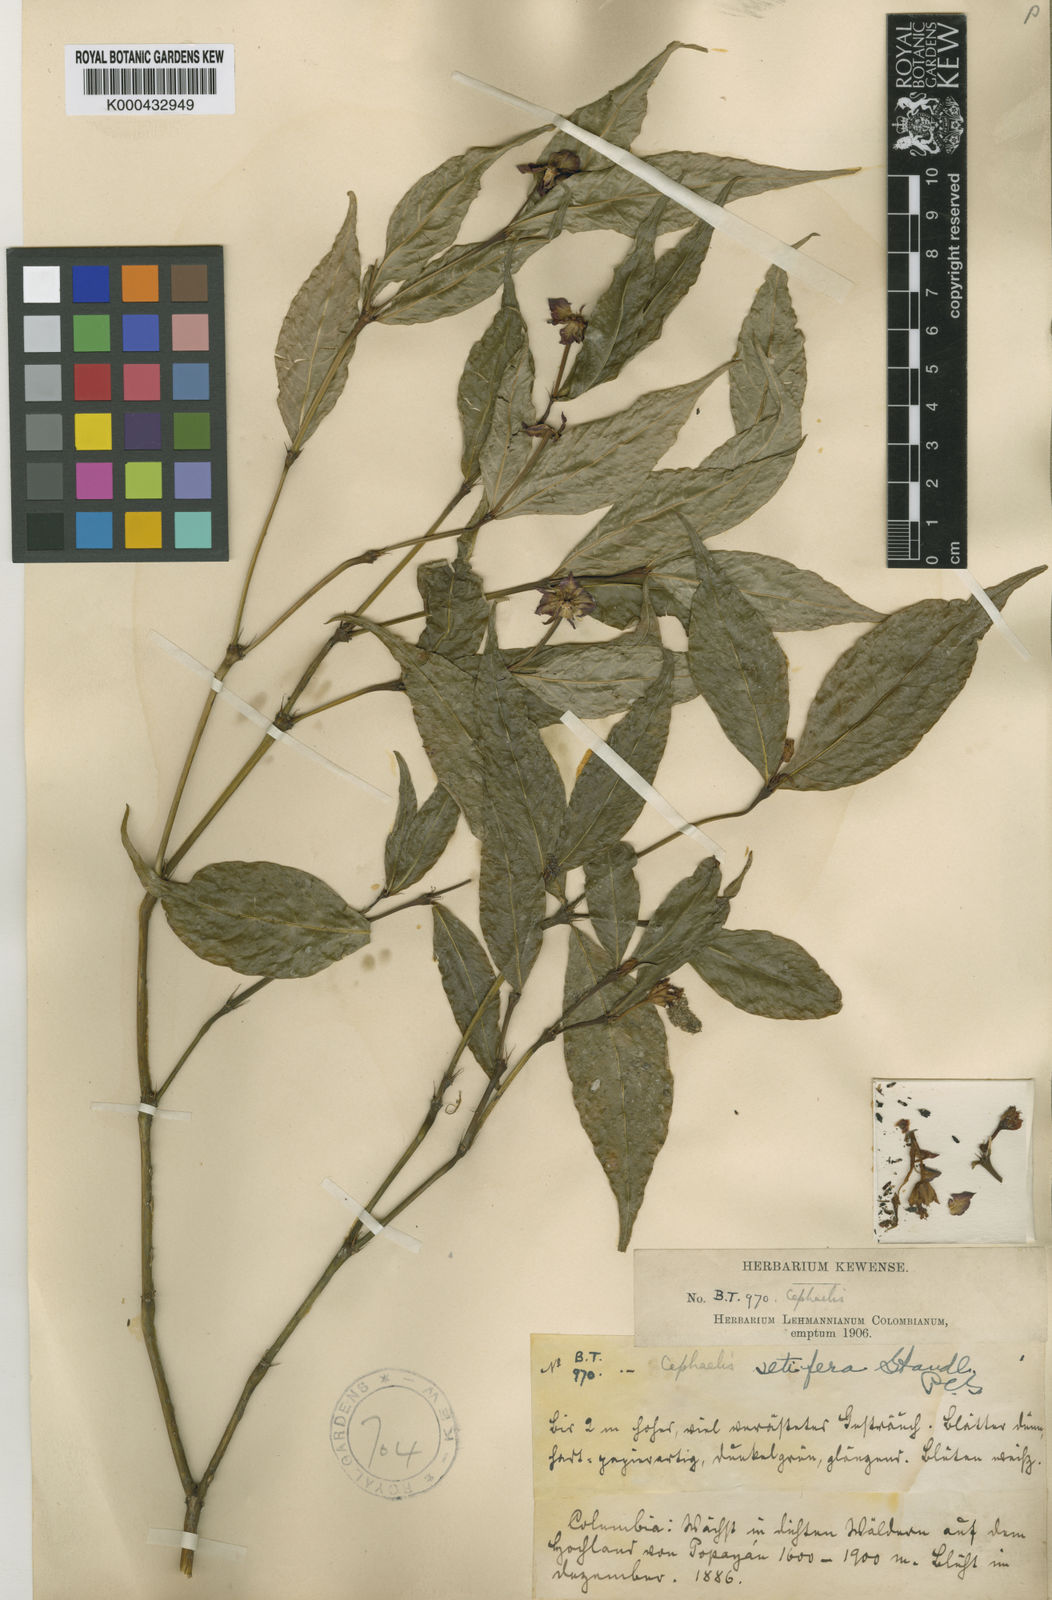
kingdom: Plantae
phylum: Tracheophyta
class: Magnoliopsida
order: Gentianales
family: Rubiaceae
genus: Palicourea
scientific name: Palicourea violacea
